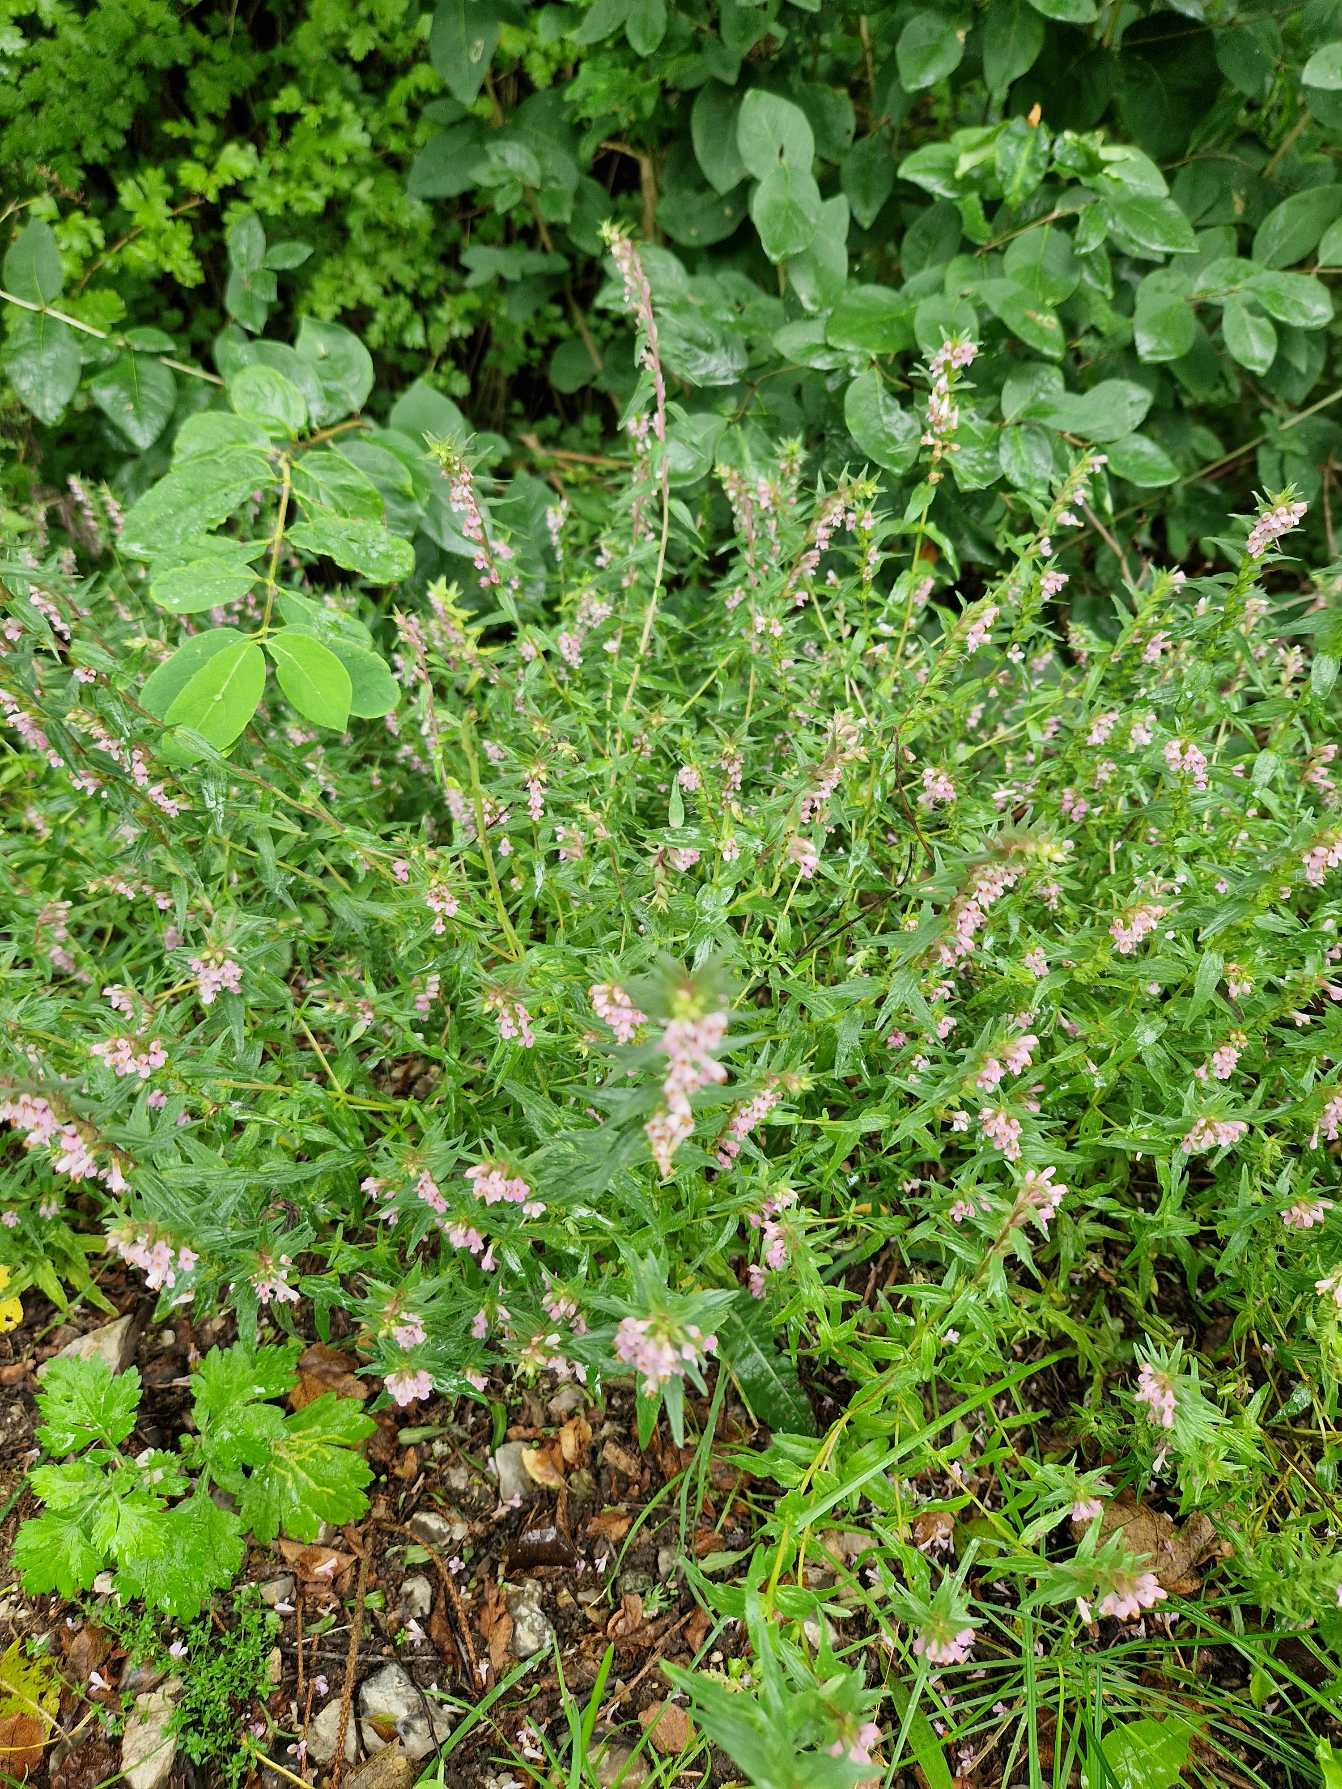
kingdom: Plantae
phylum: Tracheophyta
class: Magnoliopsida
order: Lamiales
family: Orobanchaceae
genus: Odontites
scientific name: Odontites vernus
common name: Mark-rødtop
